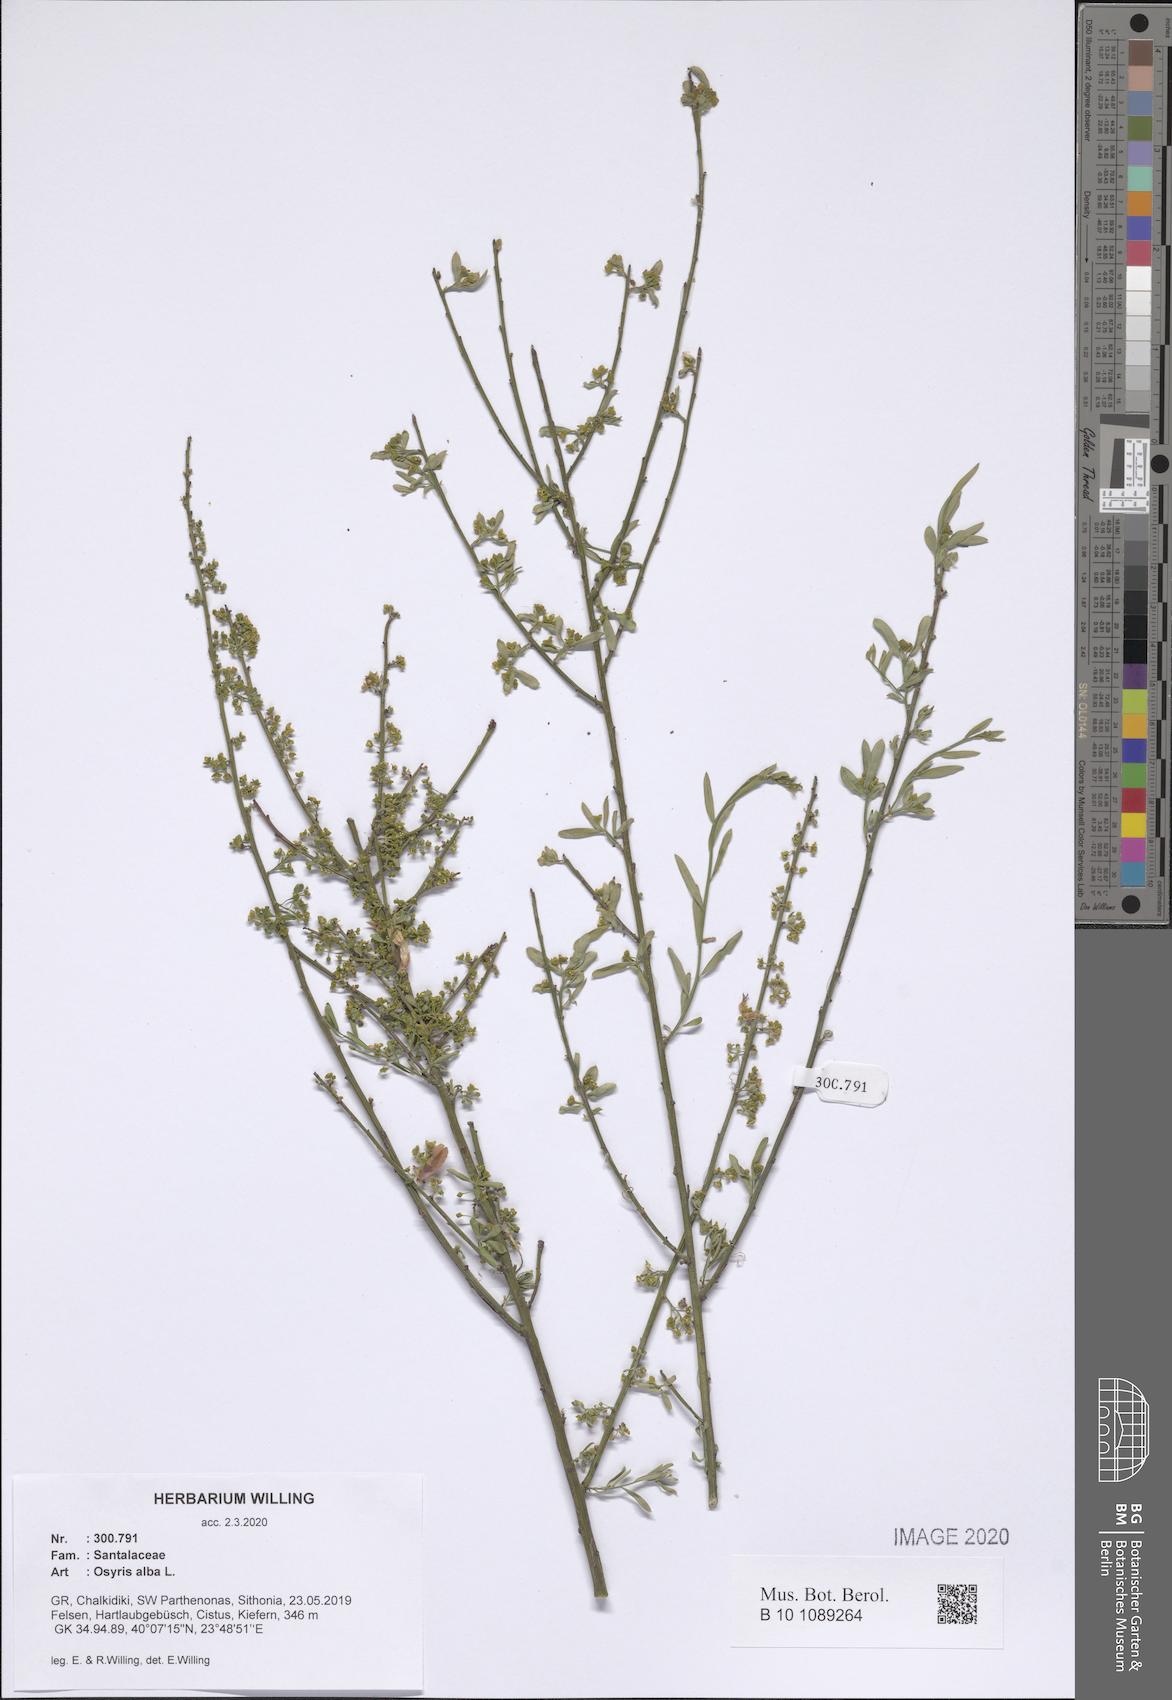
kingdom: Plantae
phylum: Tracheophyta
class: Magnoliopsida
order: Santalales
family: Santalaceae
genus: Osyris
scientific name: Osyris alba
